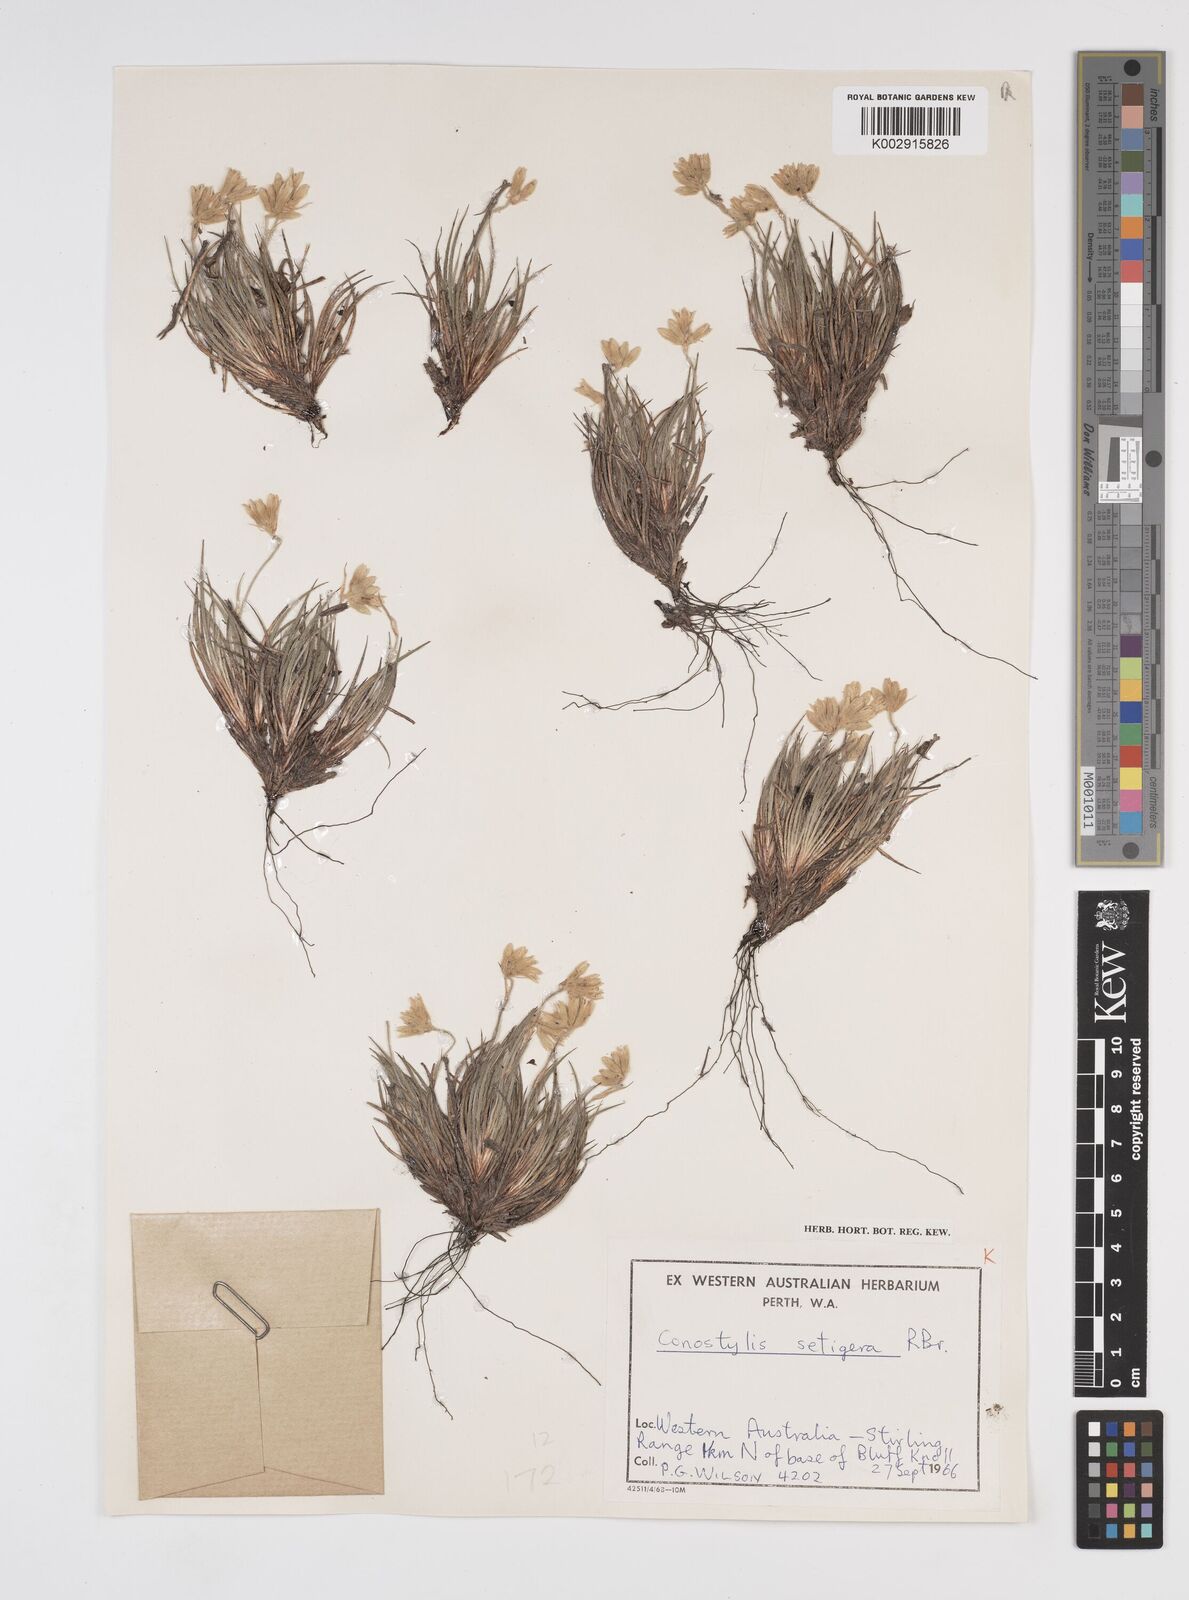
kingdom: Plantae
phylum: Tracheophyta
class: Liliopsida
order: Commelinales
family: Haemodoraceae
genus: Conostylis
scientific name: Conostylis setigera
